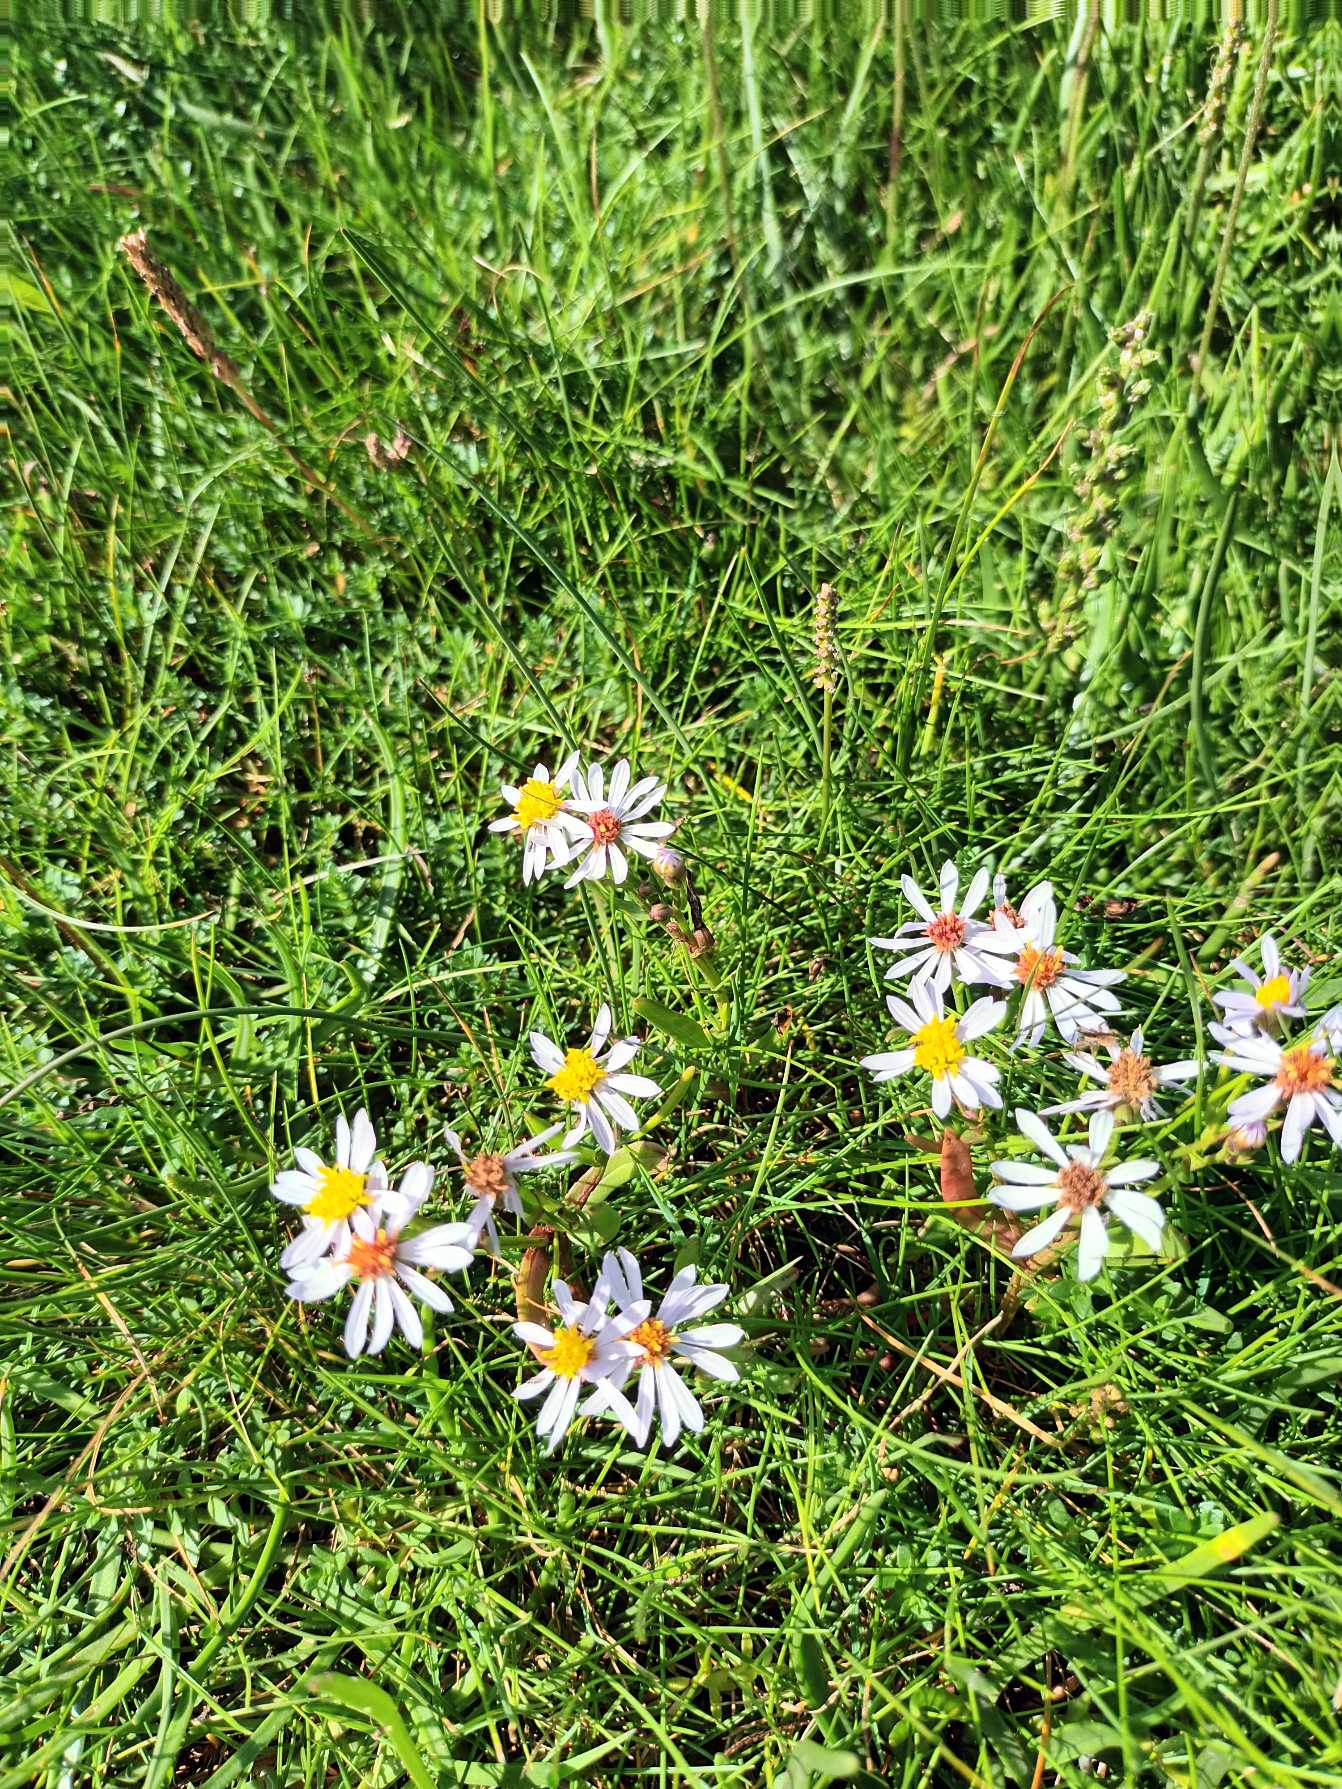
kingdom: Plantae
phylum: Tracheophyta
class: Magnoliopsida
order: Asterales
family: Asteraceae
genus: Tripolium
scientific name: Tripolium pannonicum
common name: Strandasters
